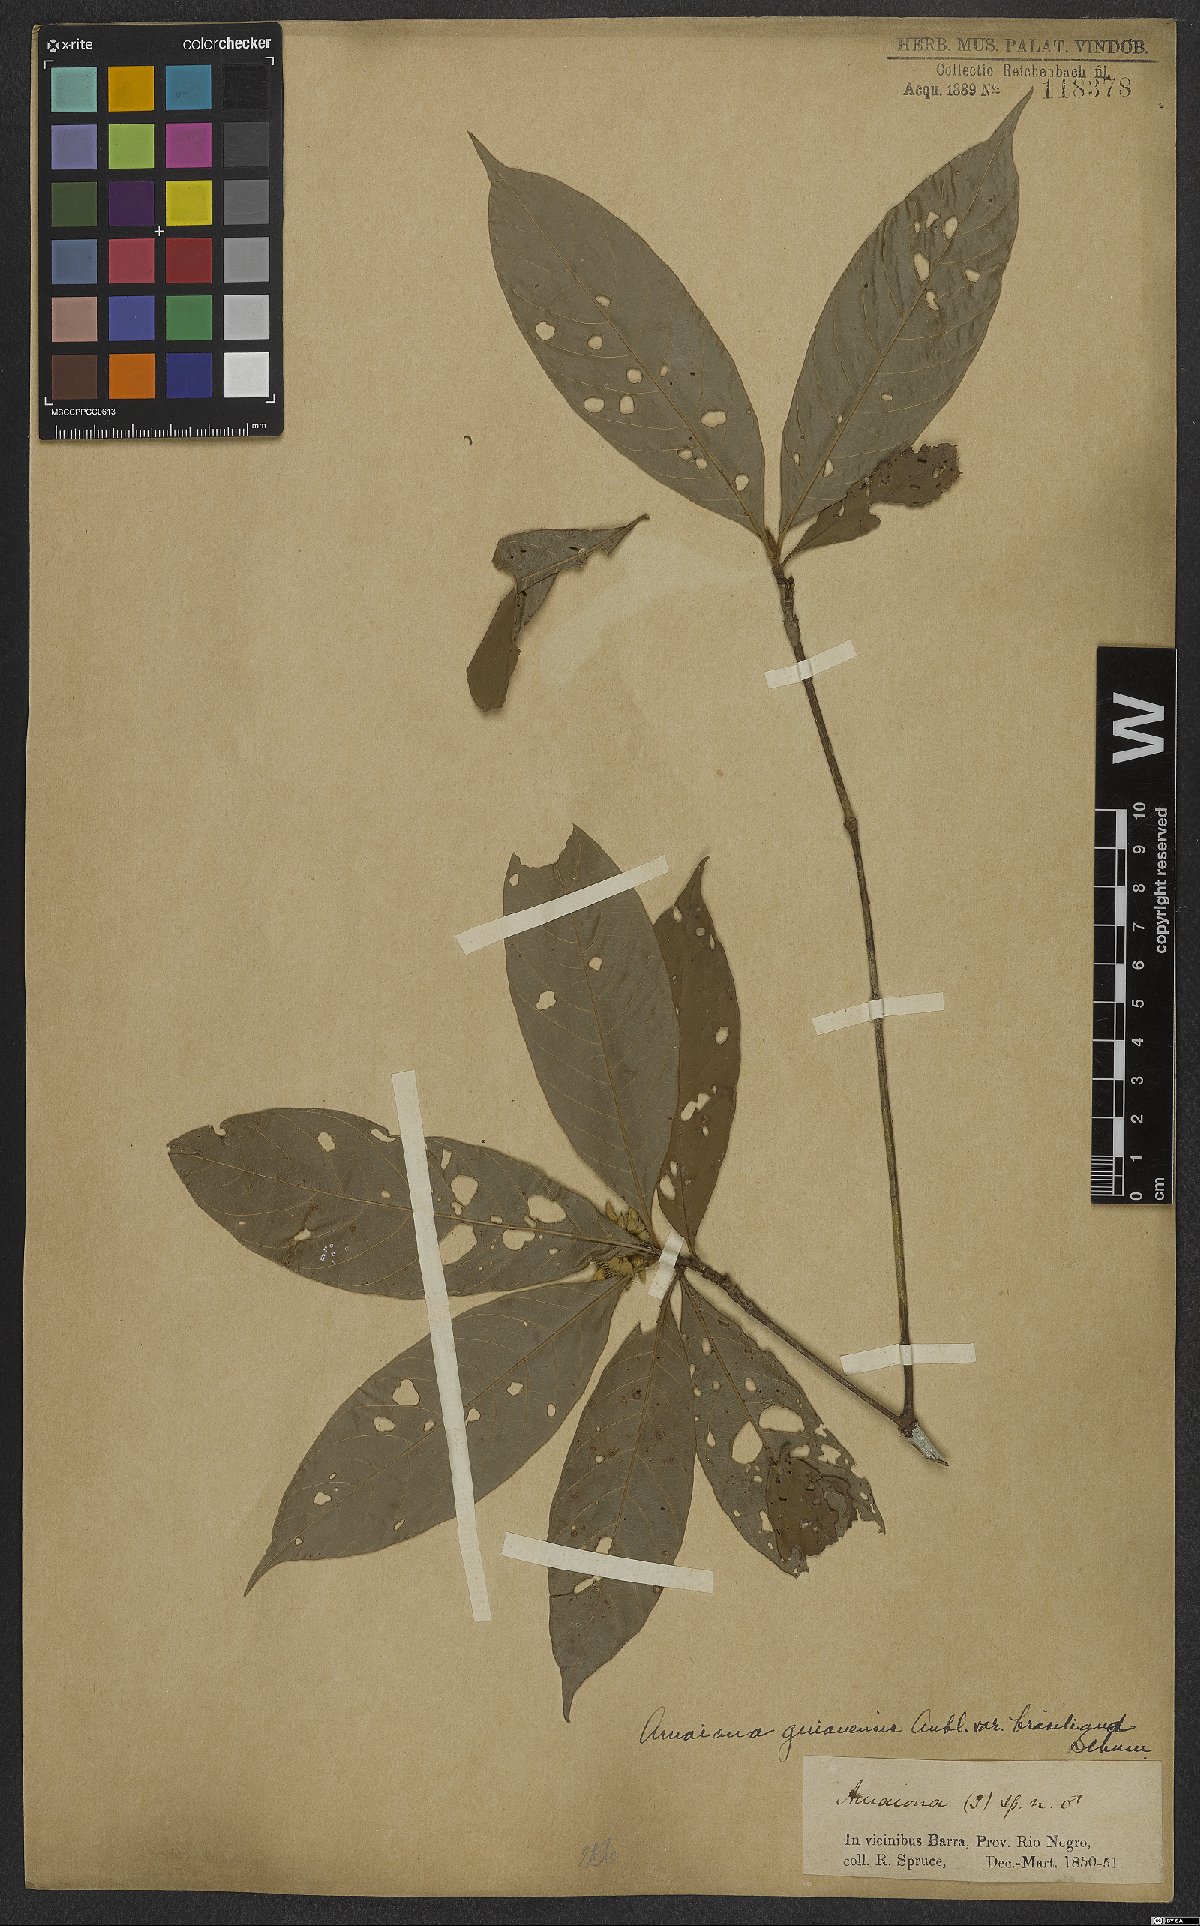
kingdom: Plantae
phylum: Tracheophyta
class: Magnoliopsida
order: Gentianales
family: Rubiaceae
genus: Amaioua
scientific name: Amaioua guianensis
